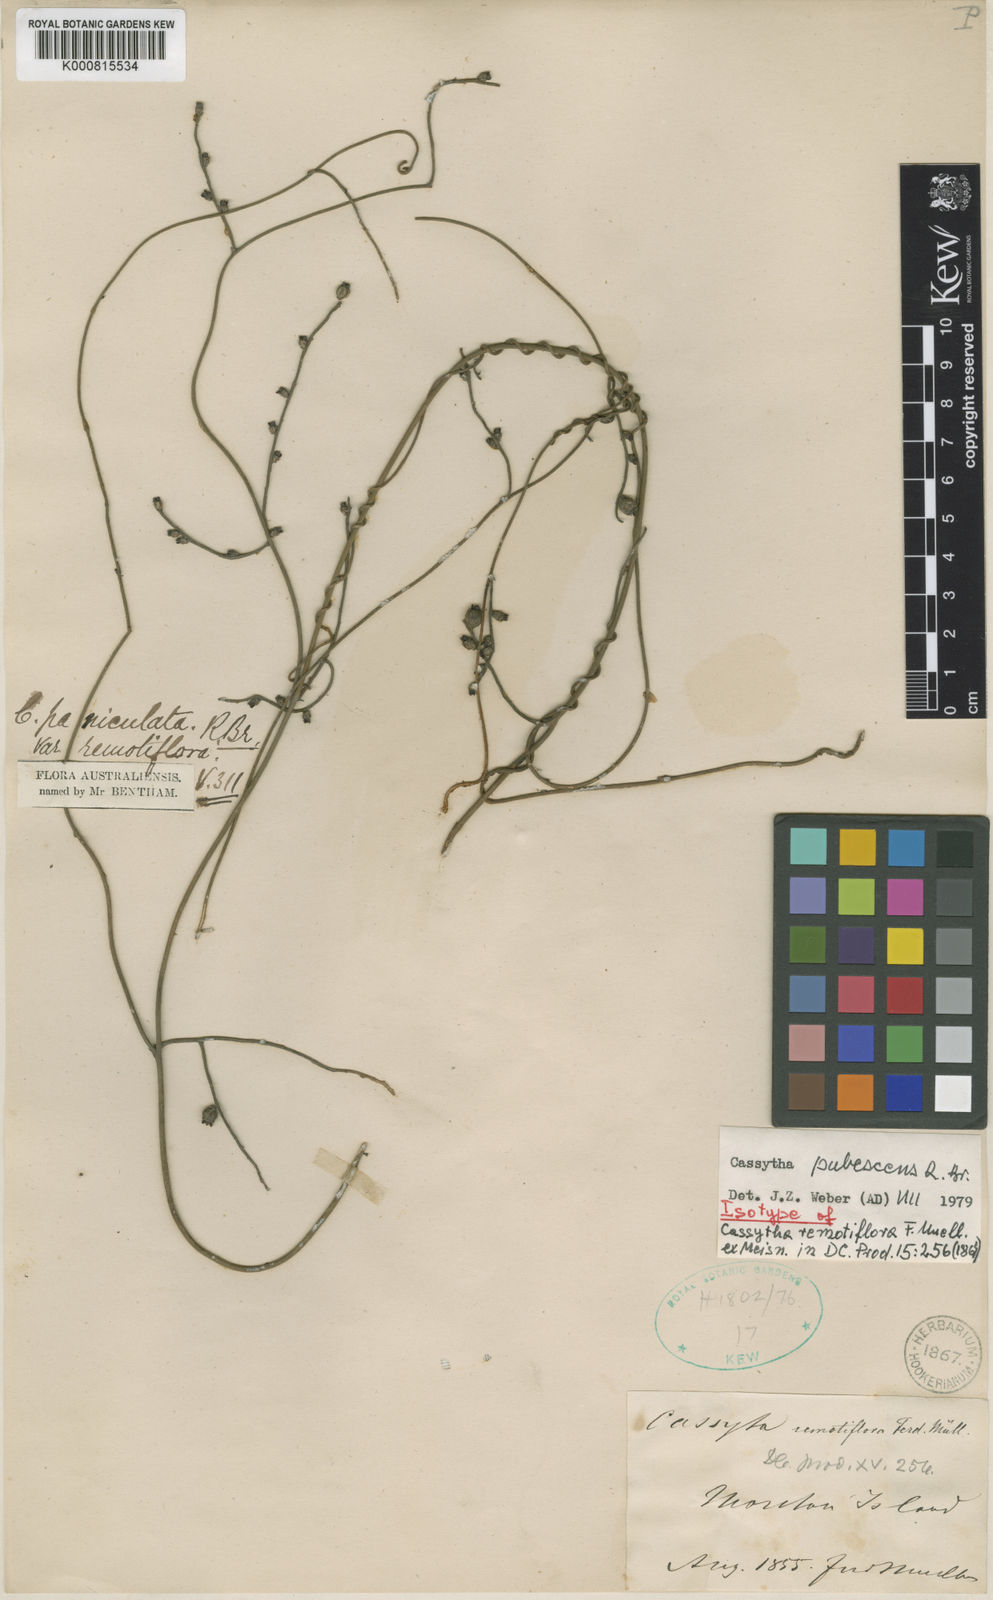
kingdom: Plantae
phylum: Tracheophyta
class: Magnoliopsida
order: Laurales
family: Lauraceae
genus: Cassytha
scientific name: Cassytha pubescens
